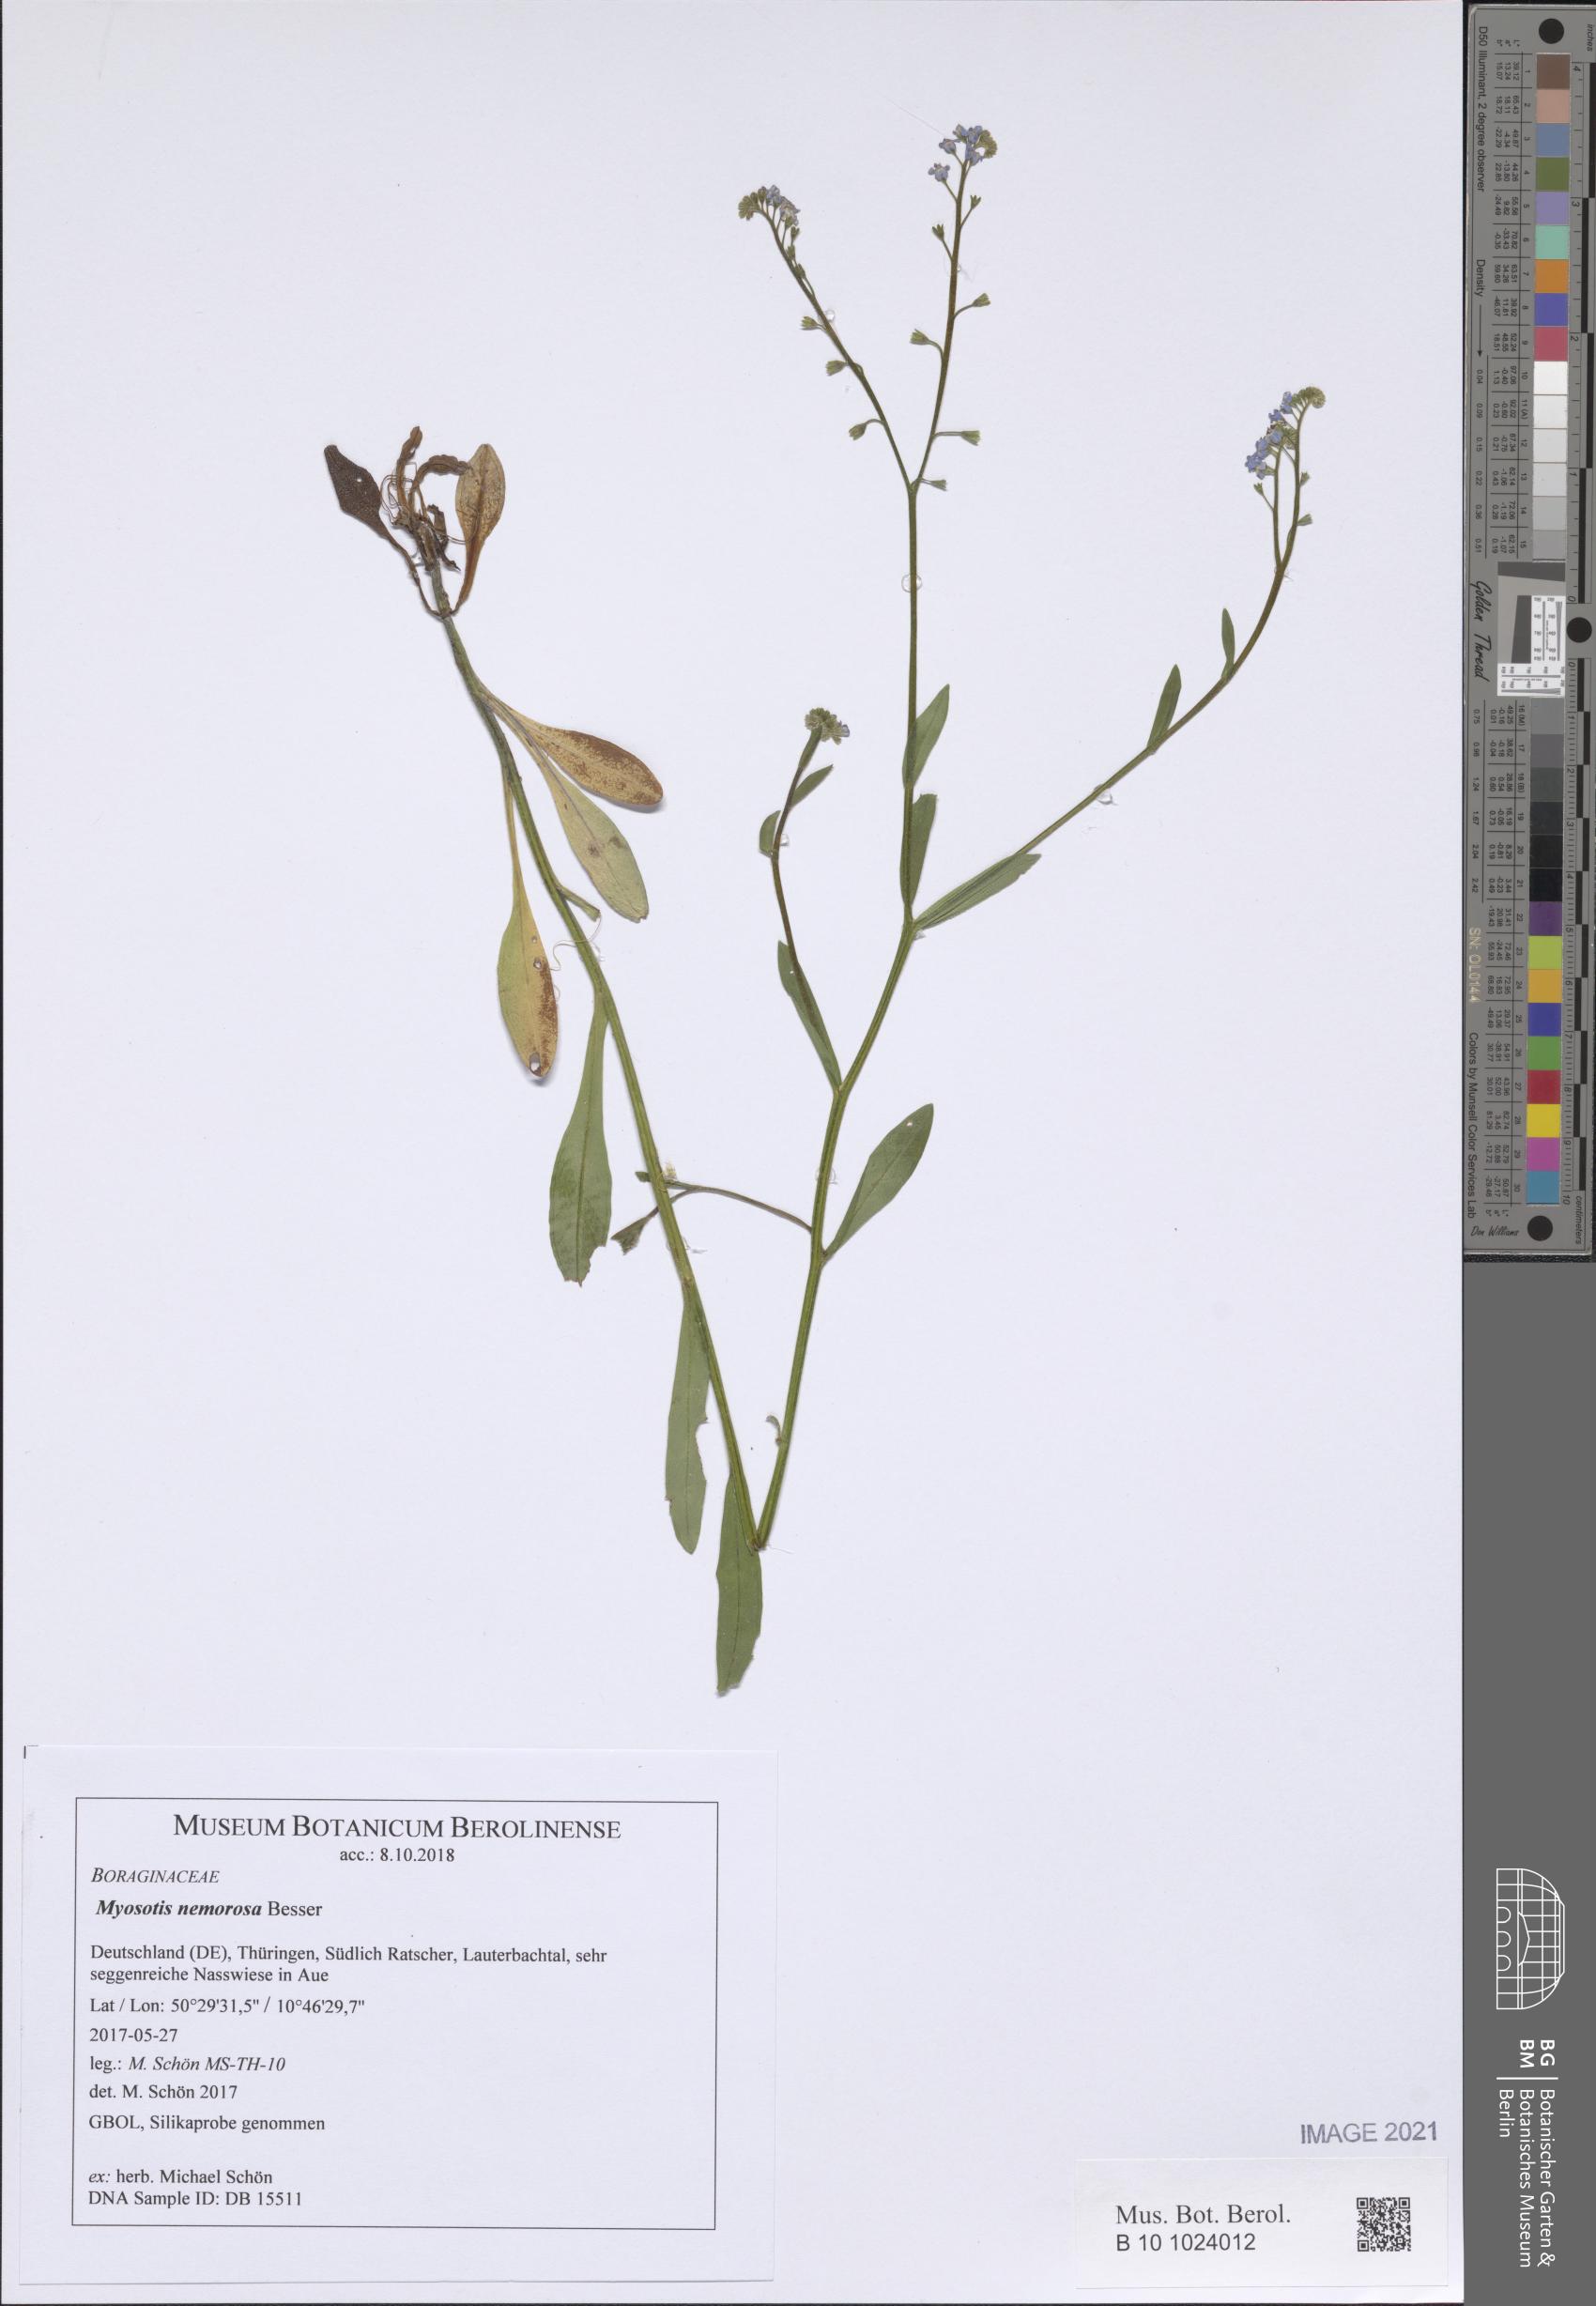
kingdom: Plantae
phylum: Tracheophyta
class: Magnoliopsida
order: Boraginales
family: Boraginaceae
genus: Myosotis
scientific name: Myosotis nemorosa
